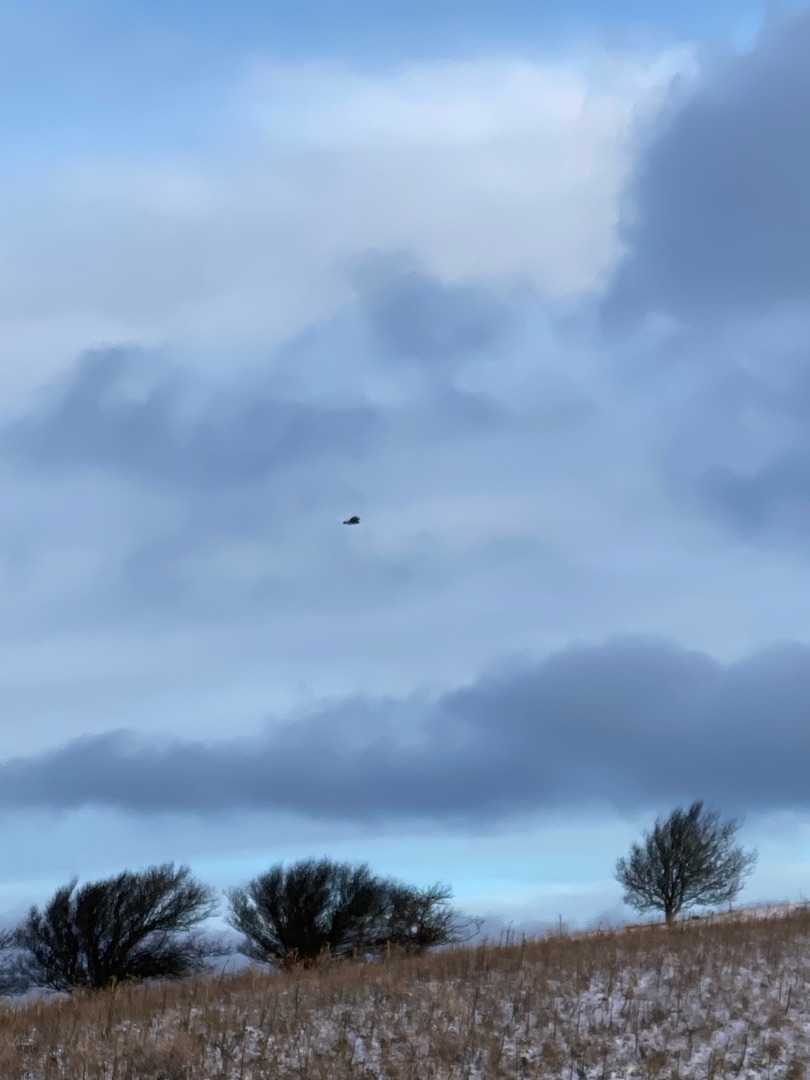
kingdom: Animalia
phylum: Chordata
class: Aves
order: Accipitriformes
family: Accipitridae
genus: Buteo
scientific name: Buteo buteo
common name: Musvåge
